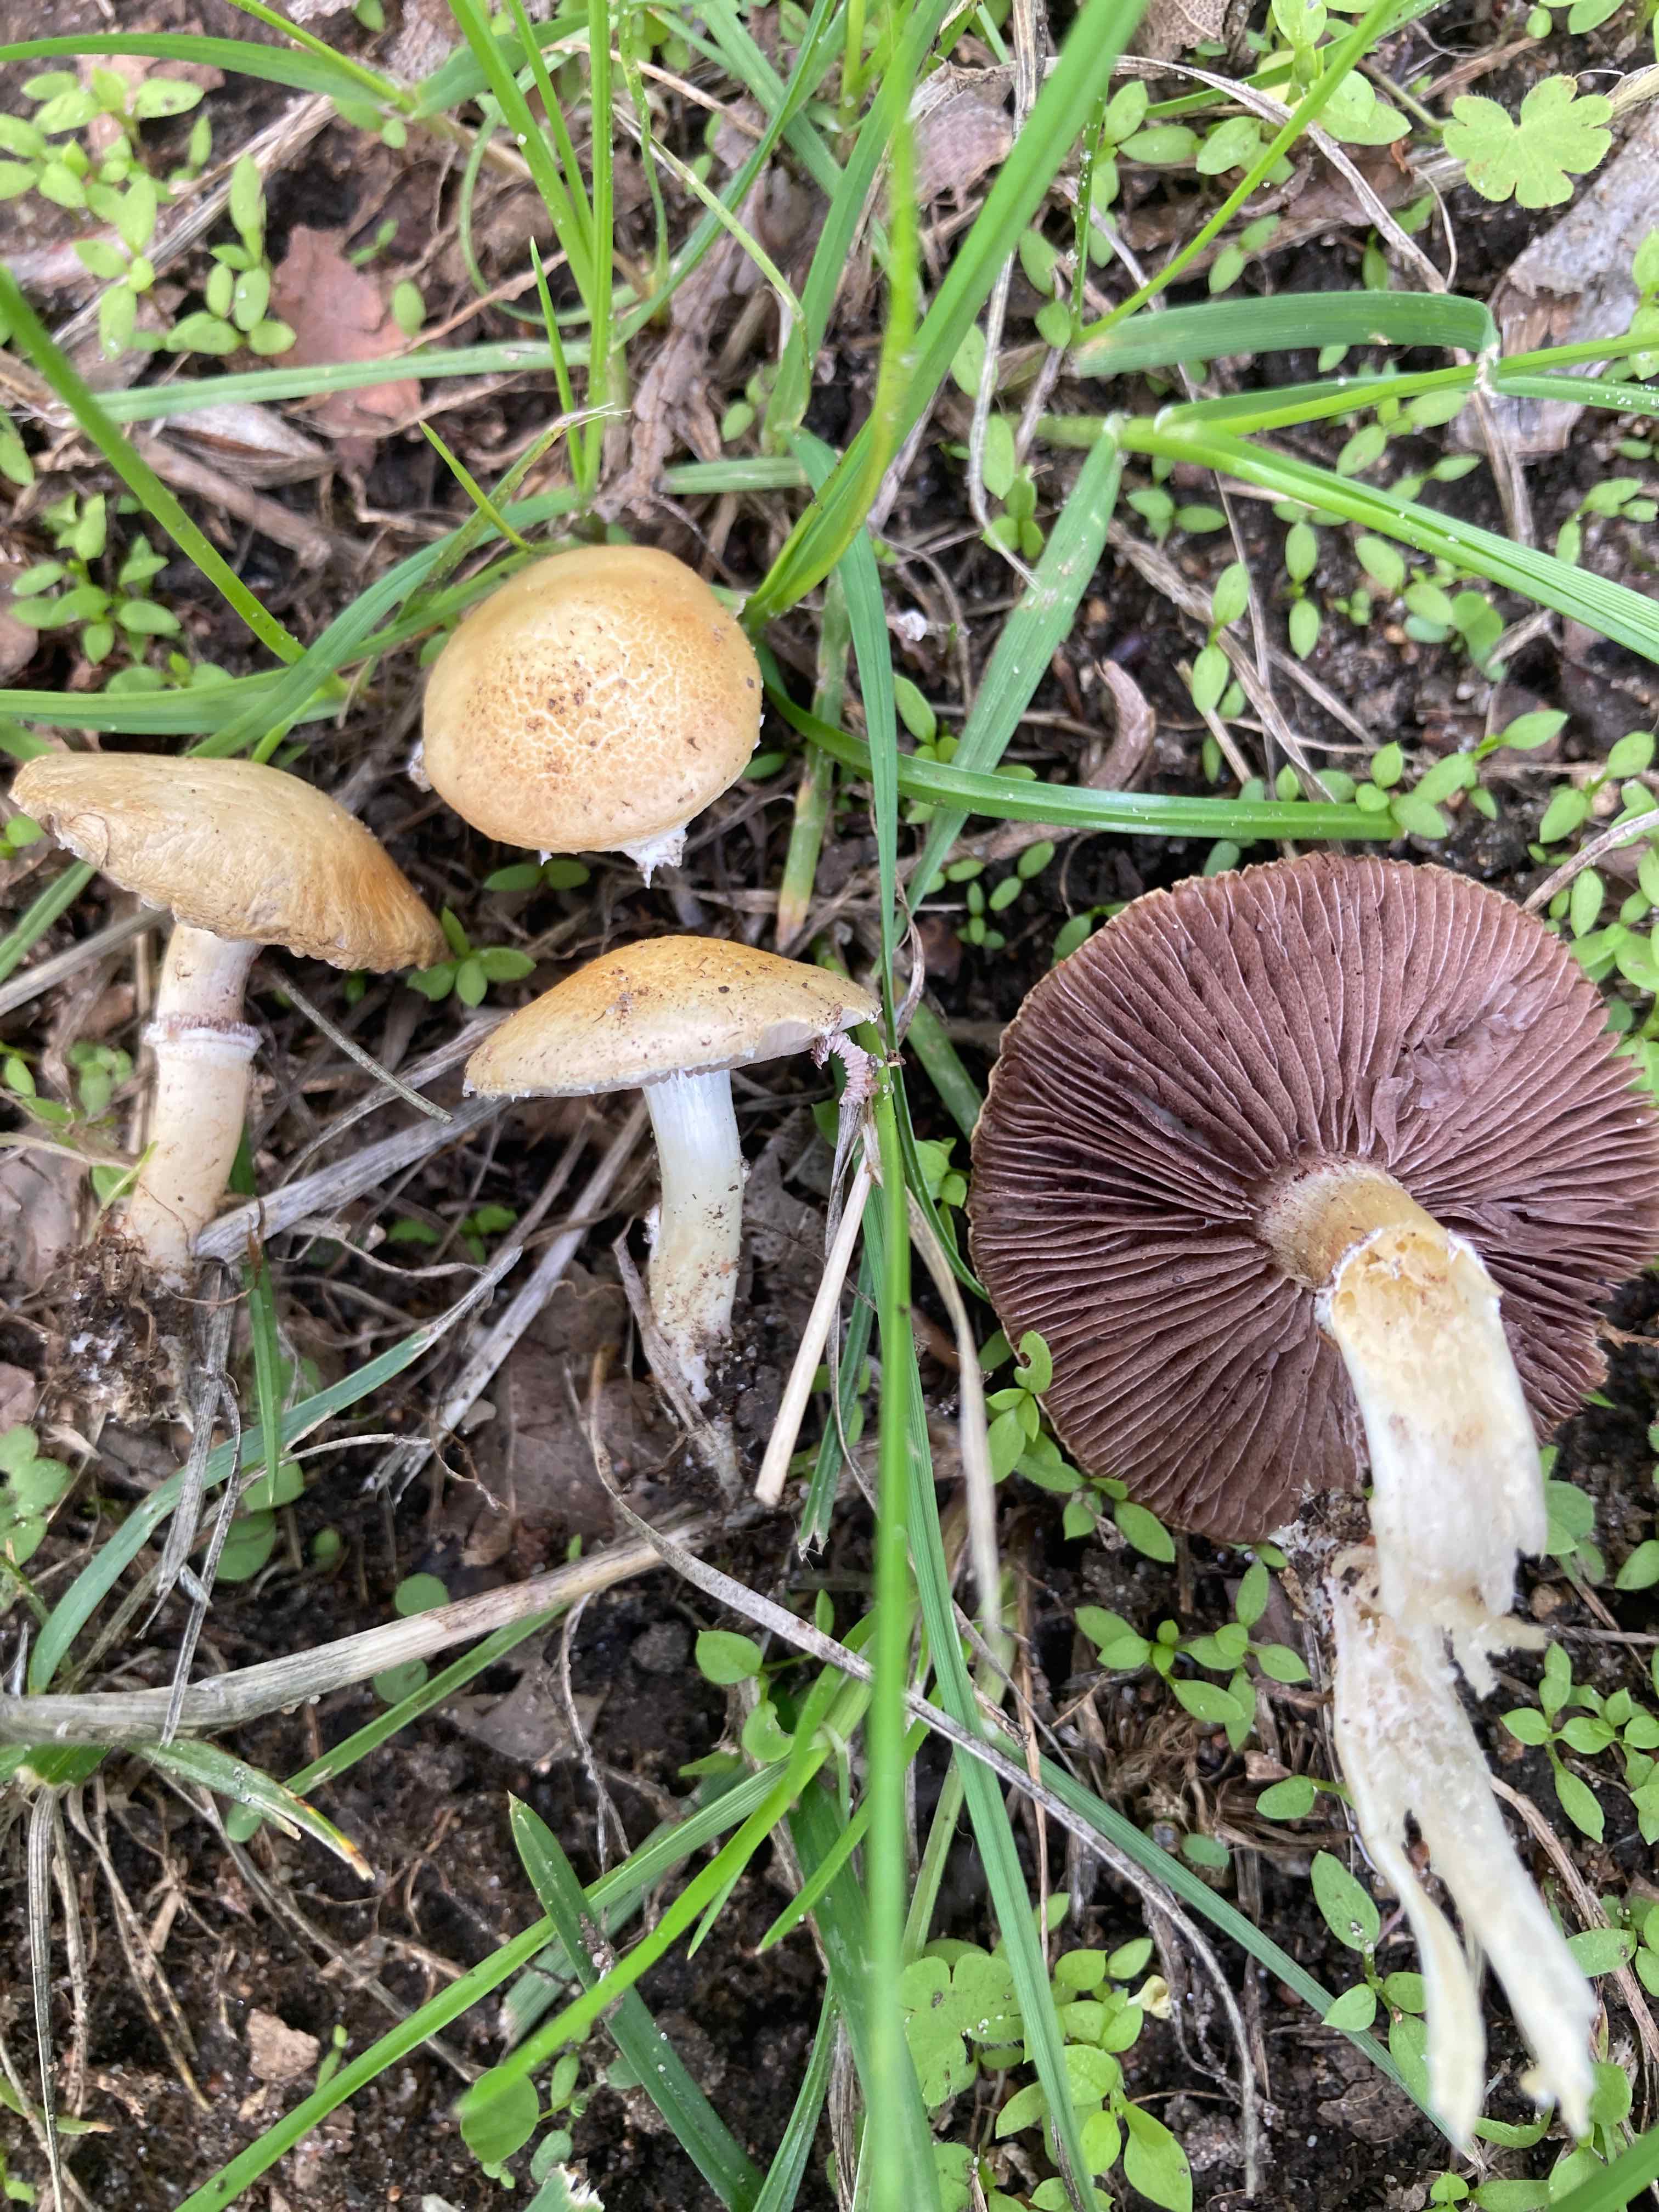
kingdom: Fungi
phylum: Basidiomycota
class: Agaricomycetes
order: Agaricales
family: Hymenogastraceae
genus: Psilocybe
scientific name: Psilocybe coronilla
